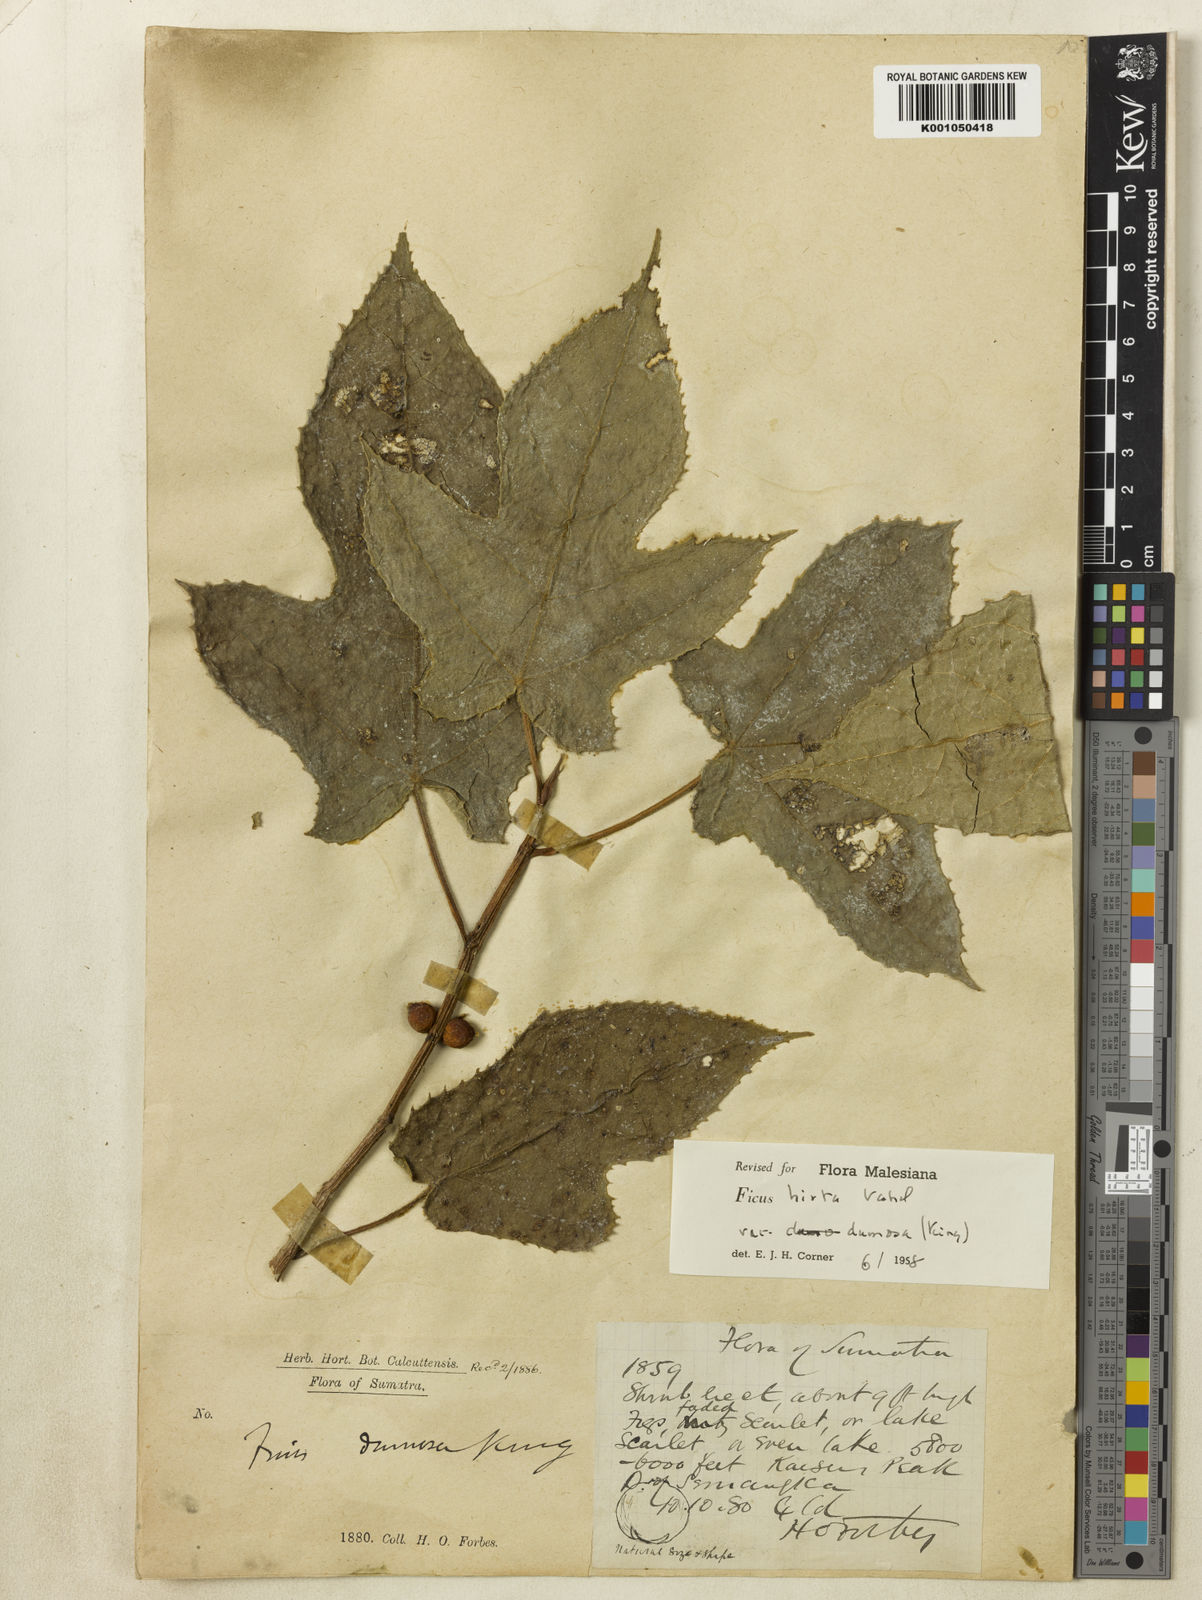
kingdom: Plantae
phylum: Tracheophyta
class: Magnoliopsida
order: Rosales
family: Moraceae
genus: Ficus
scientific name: Ficus simplicissima
